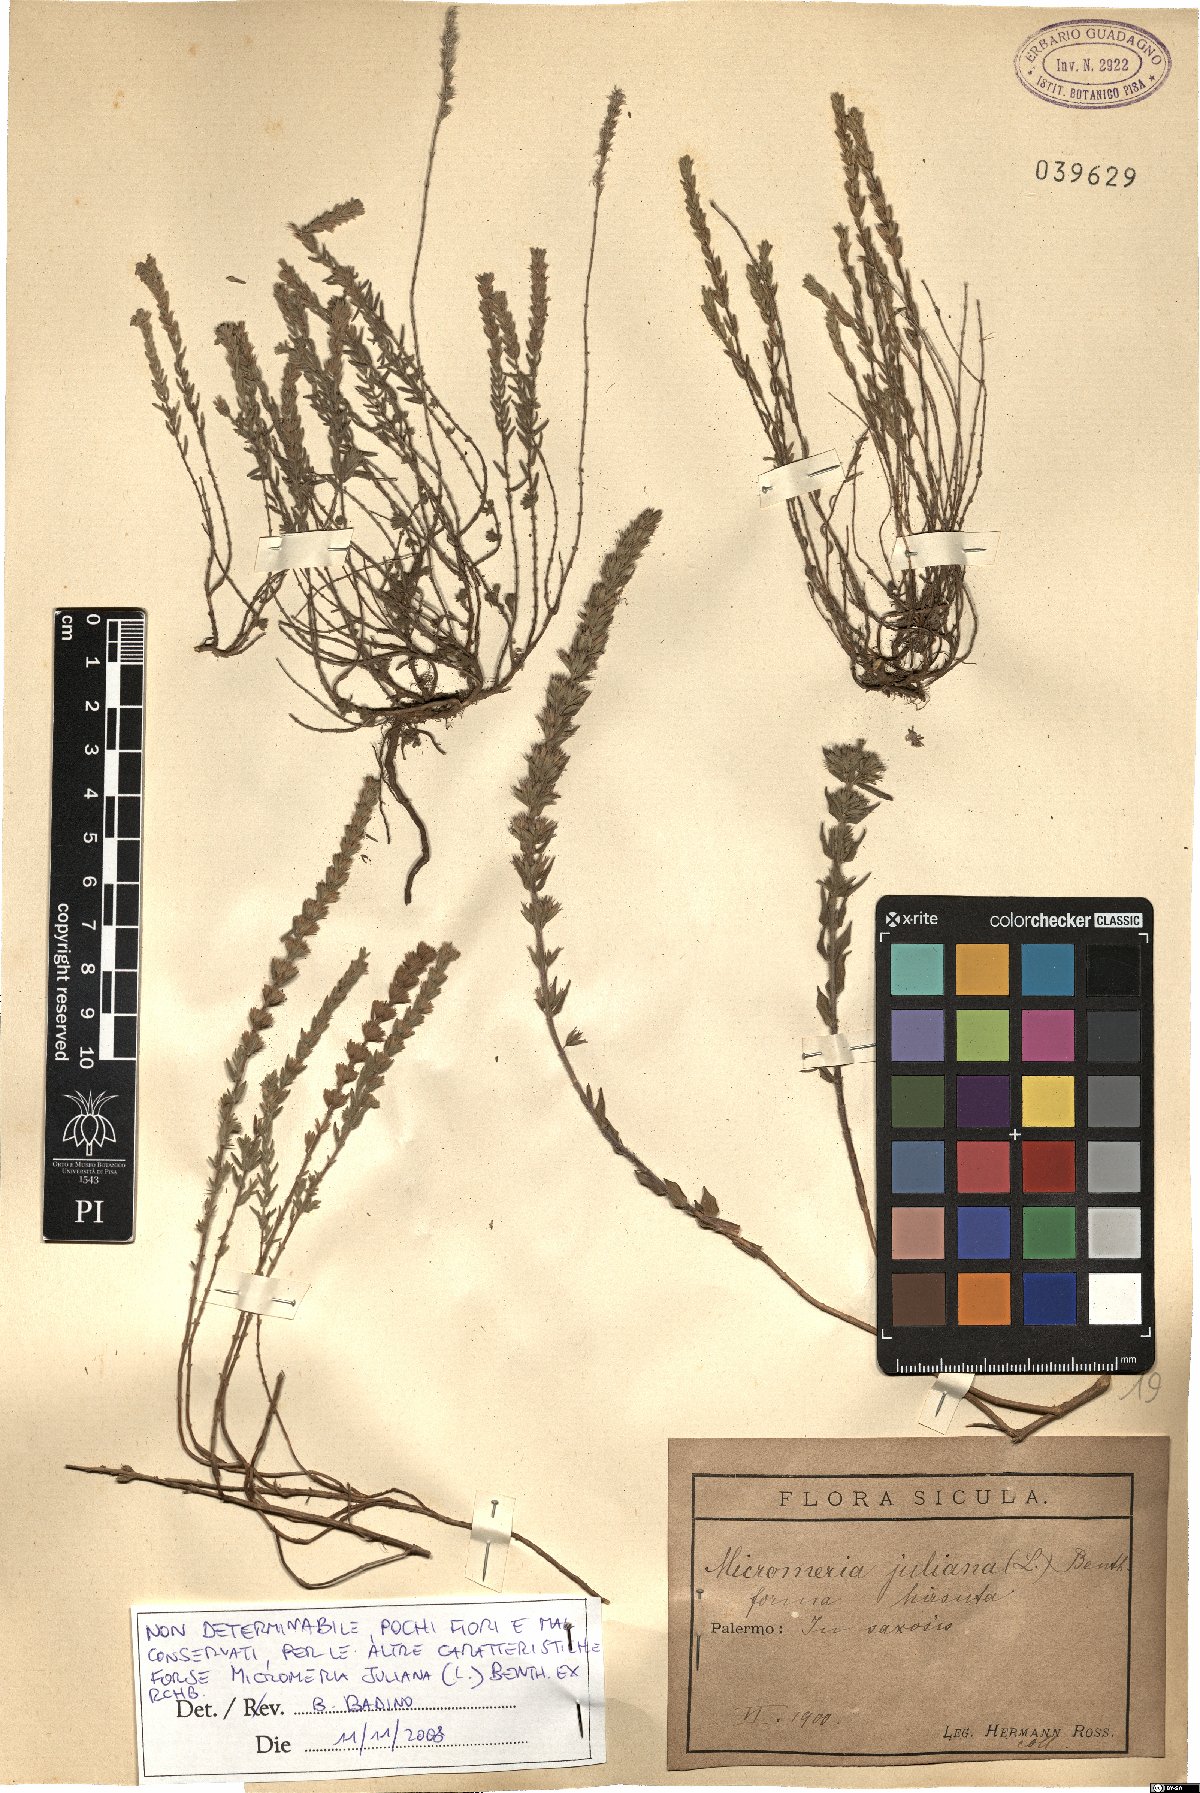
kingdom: Plantae
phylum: Tracheophyta
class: Magnoliopsida
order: Lamiales
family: Lamiaceae
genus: Micromeria
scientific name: Micromeria juliana
